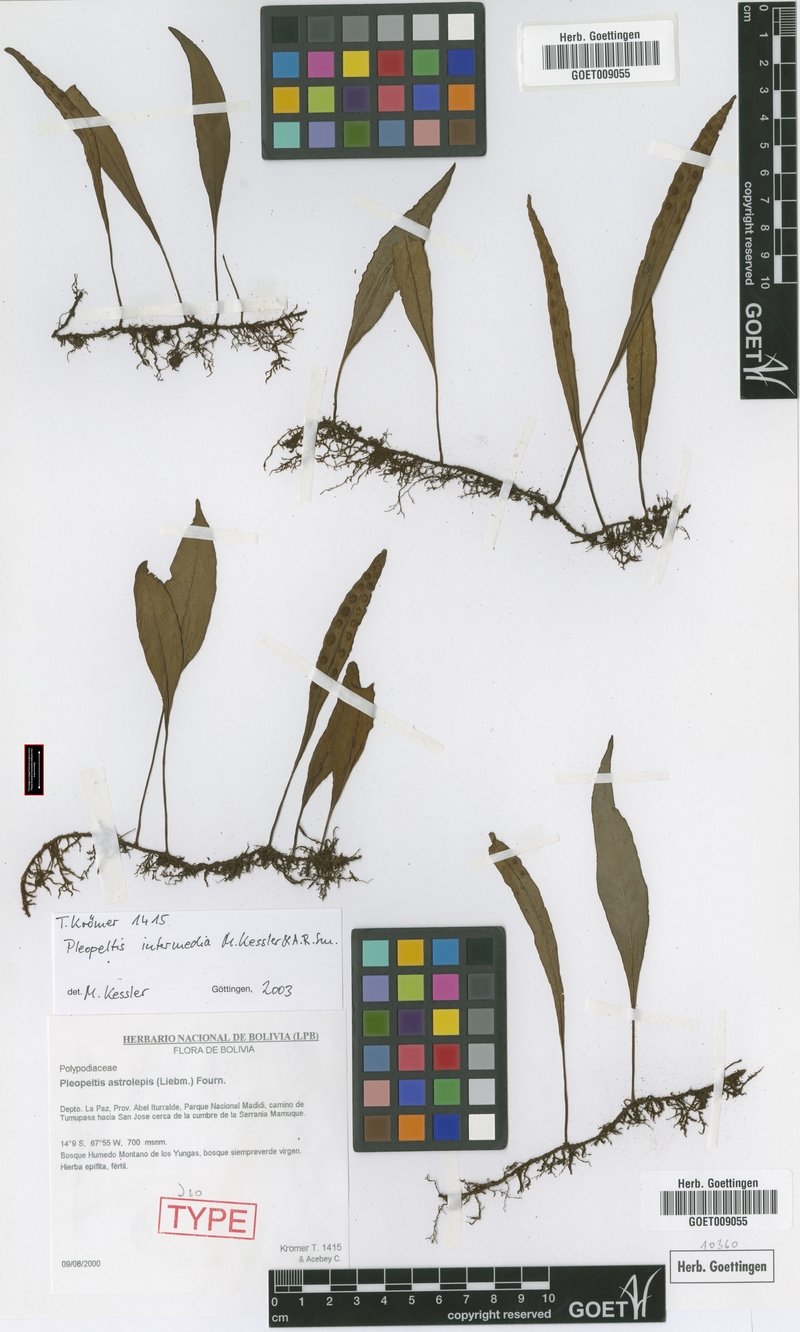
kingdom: Plantae
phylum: Tracheophyta
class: Polypodiopsida
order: Polypodiales
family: Polypodiaceae
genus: Pleopeltis
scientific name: Pleopeltis intermedia
